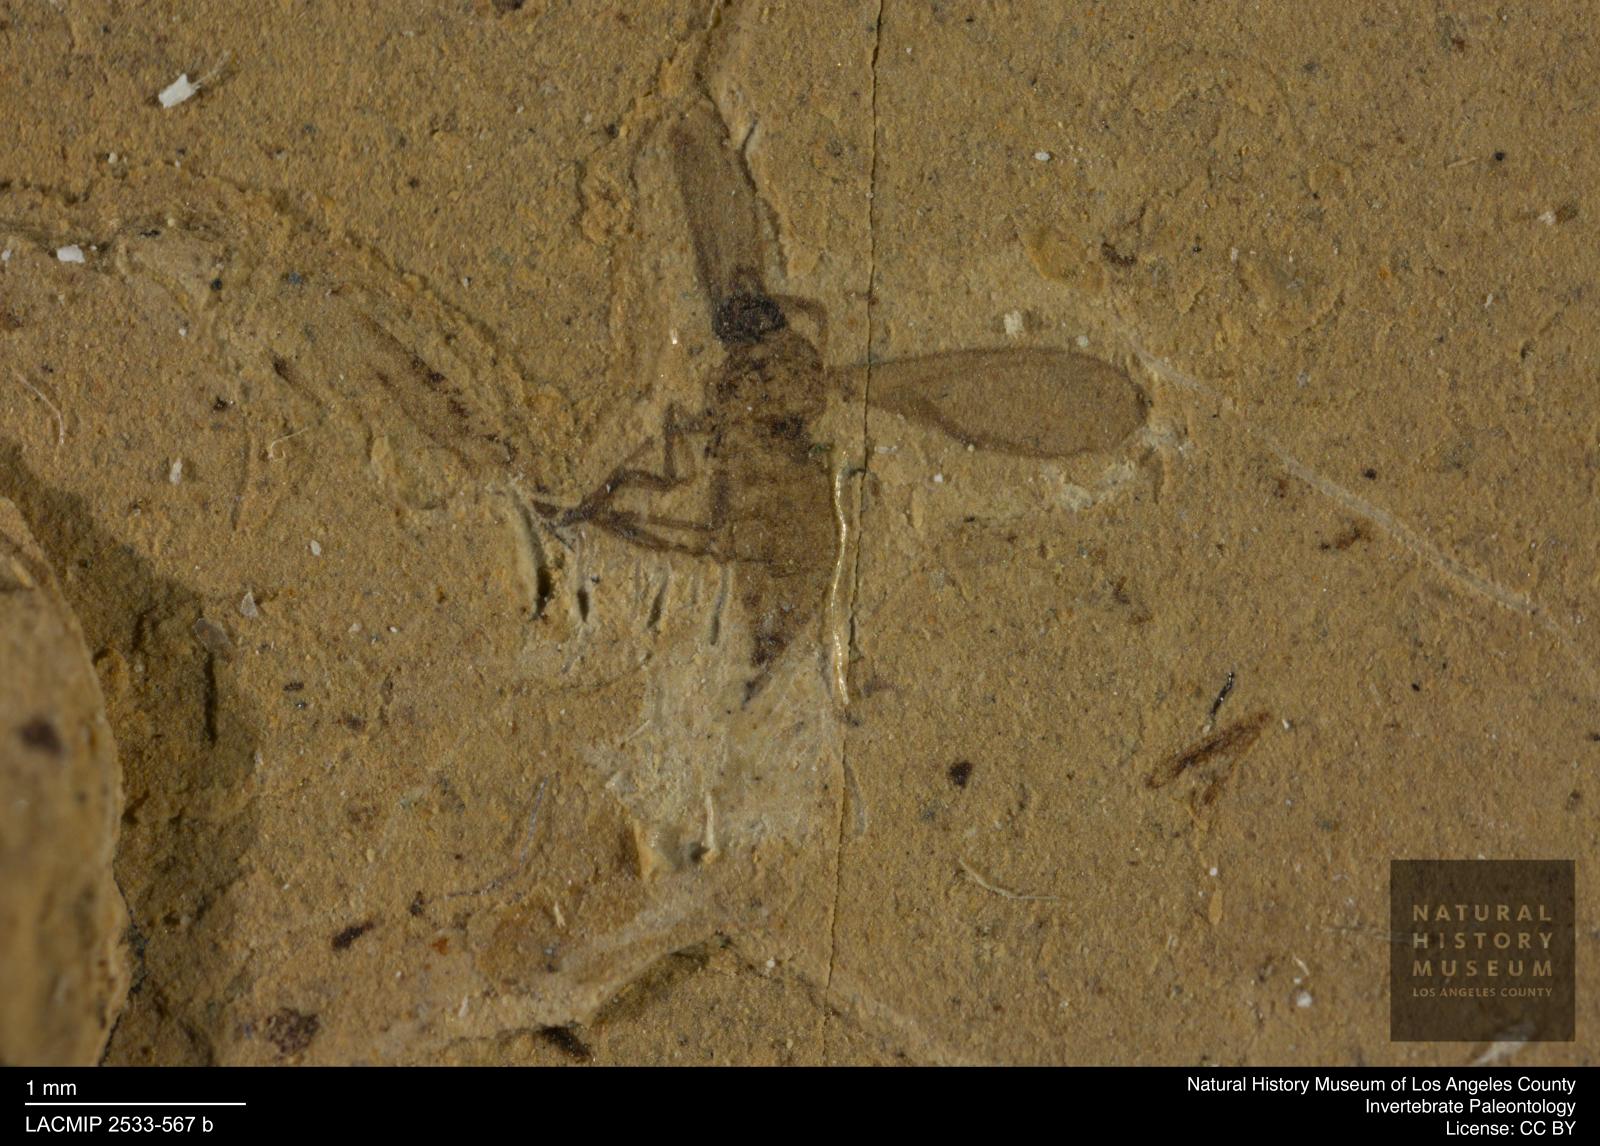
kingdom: Animalia
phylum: Arthropoda
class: Insecta
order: Diptera
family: Sciaridae
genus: Corynoptera
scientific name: Corynoptera klebsii
